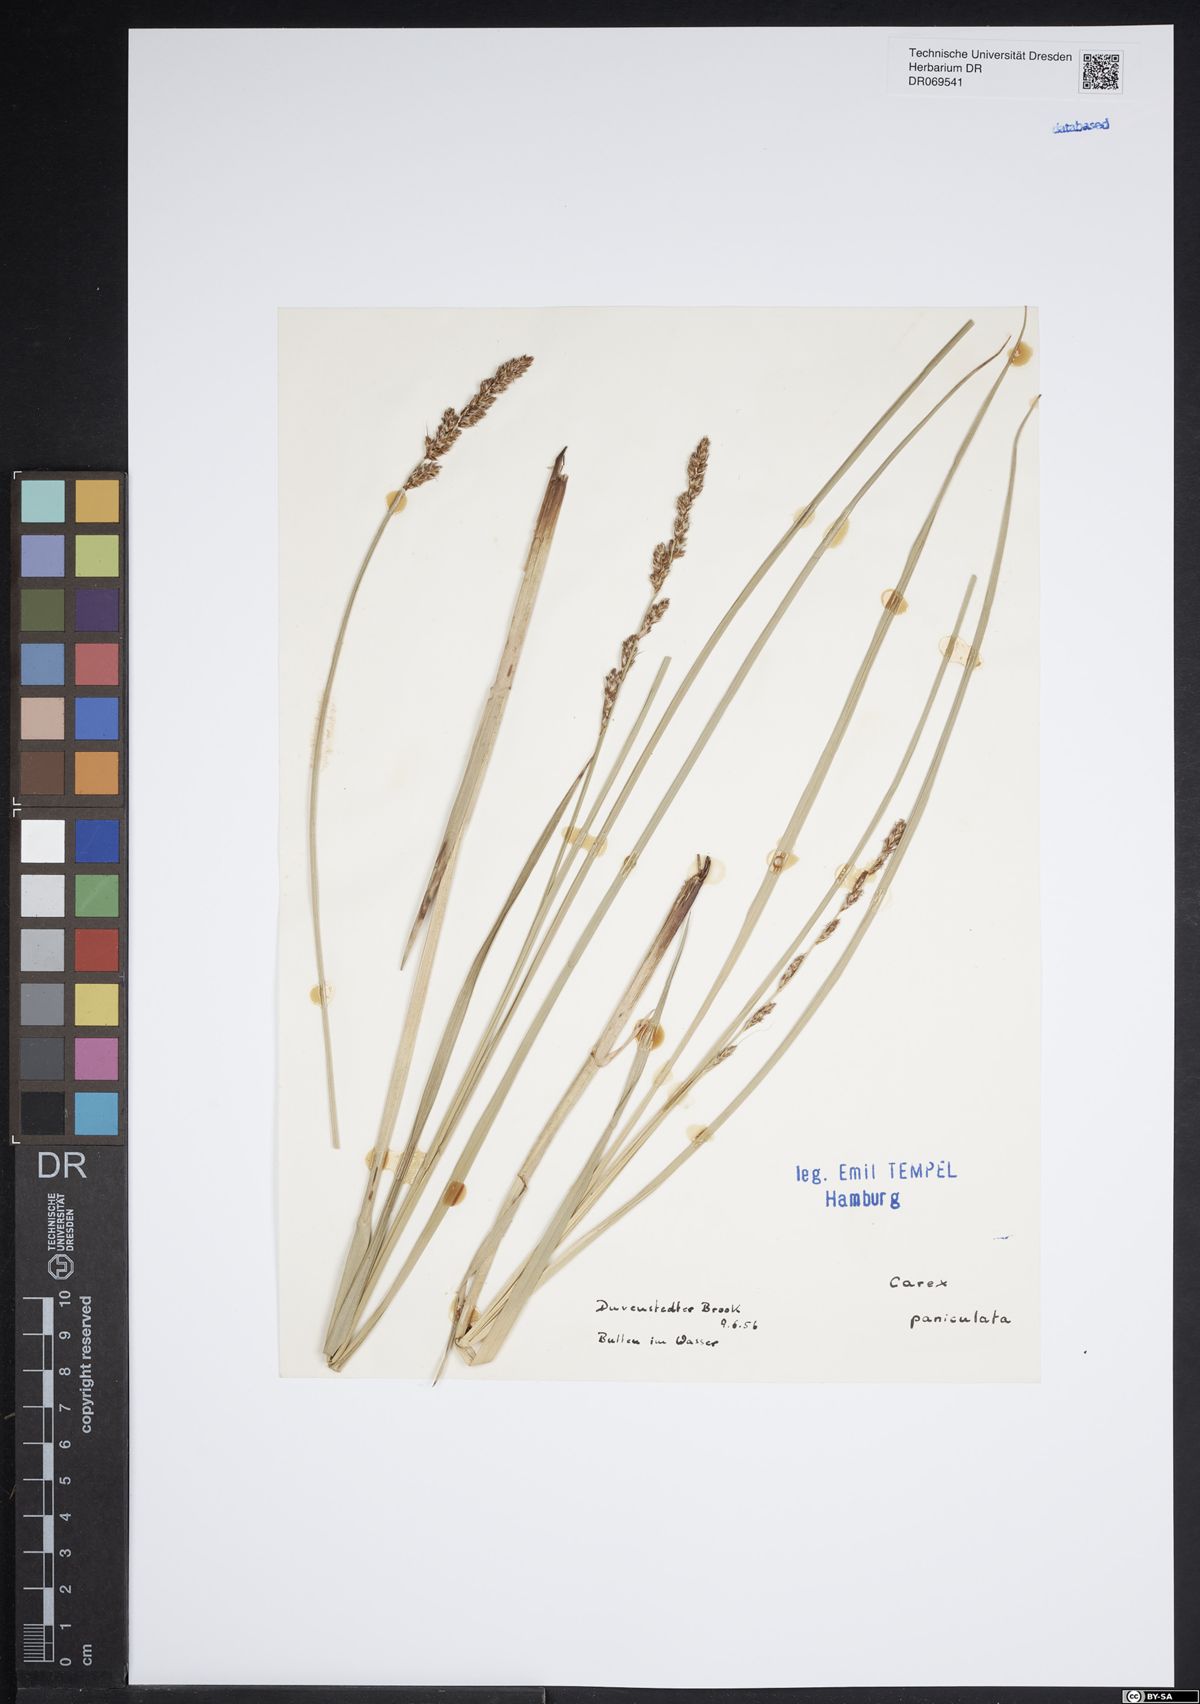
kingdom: Plantae
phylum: Tracheophyta
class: Liliopsida
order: Poales
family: Cyperaceae
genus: Carex
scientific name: Carex paniculata
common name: Greater tussock-sedge
